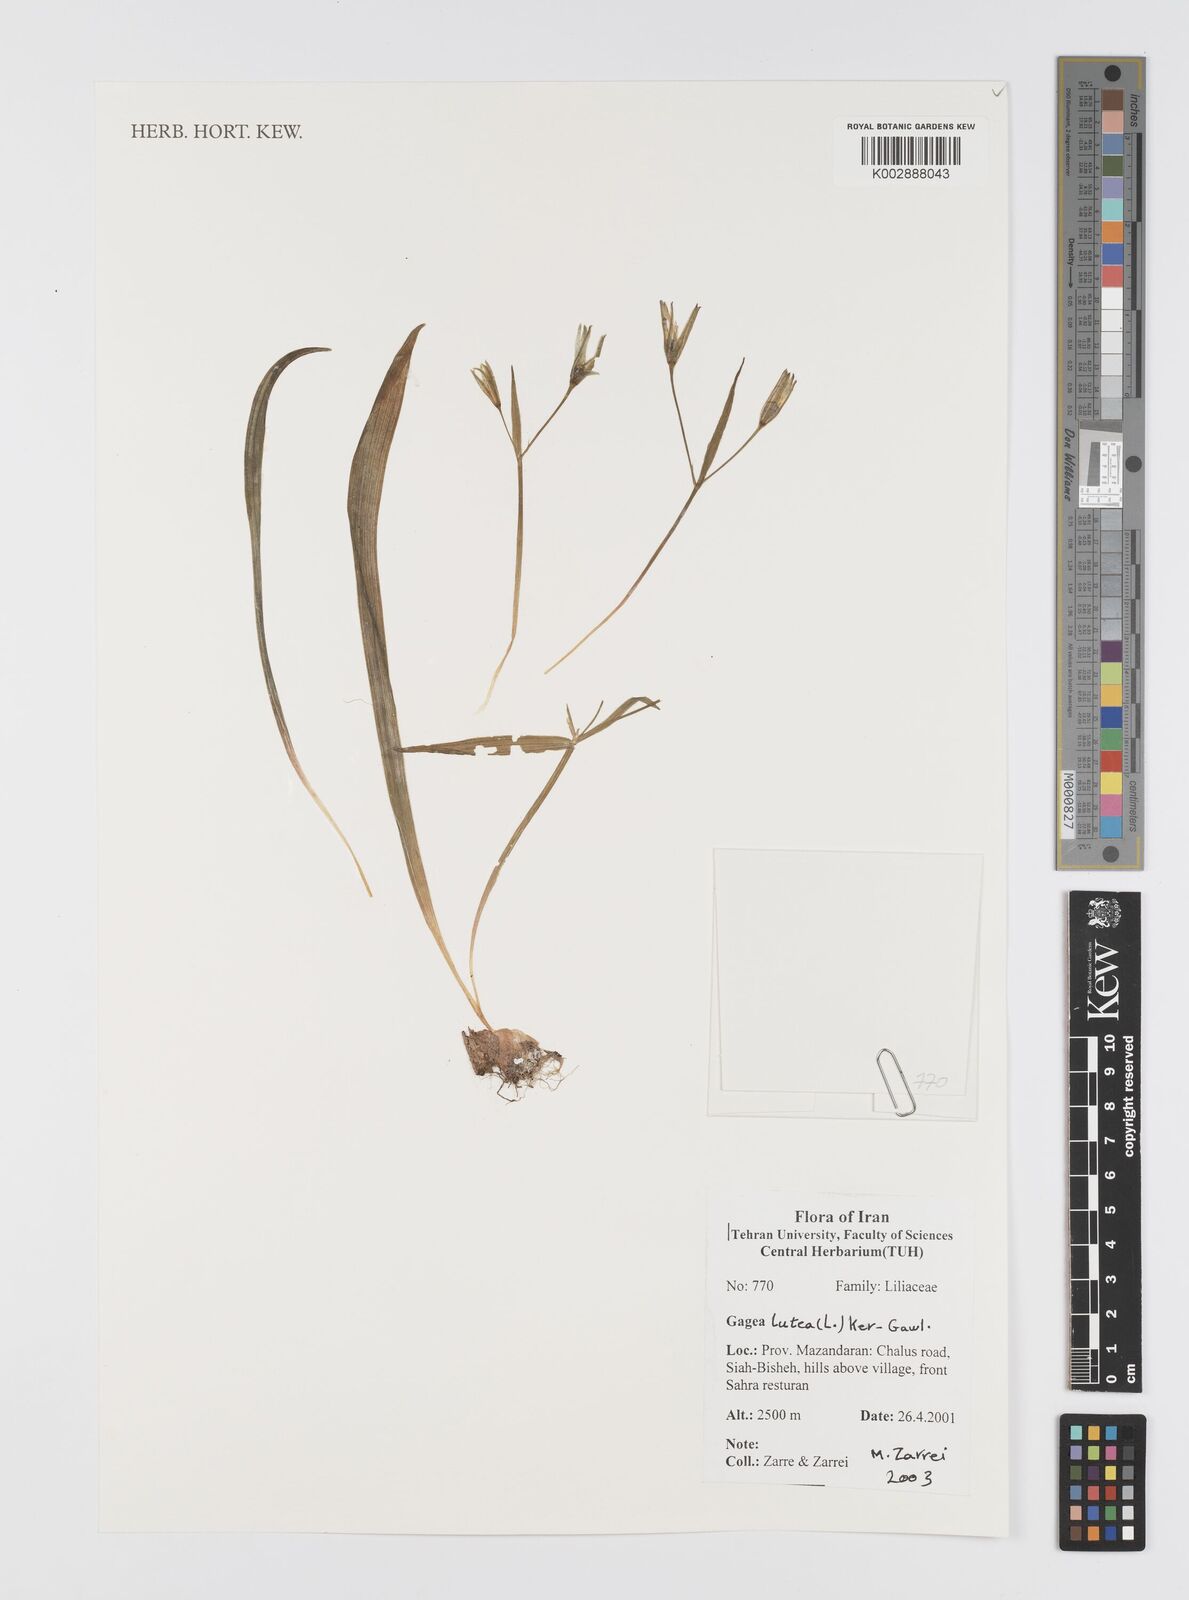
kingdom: Plantae
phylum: Tracheophyta
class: Liliopsida
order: Liliales
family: Liliaceae
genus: Gagea
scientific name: Gagea lutea
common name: Yellow star-of-bethlehem
